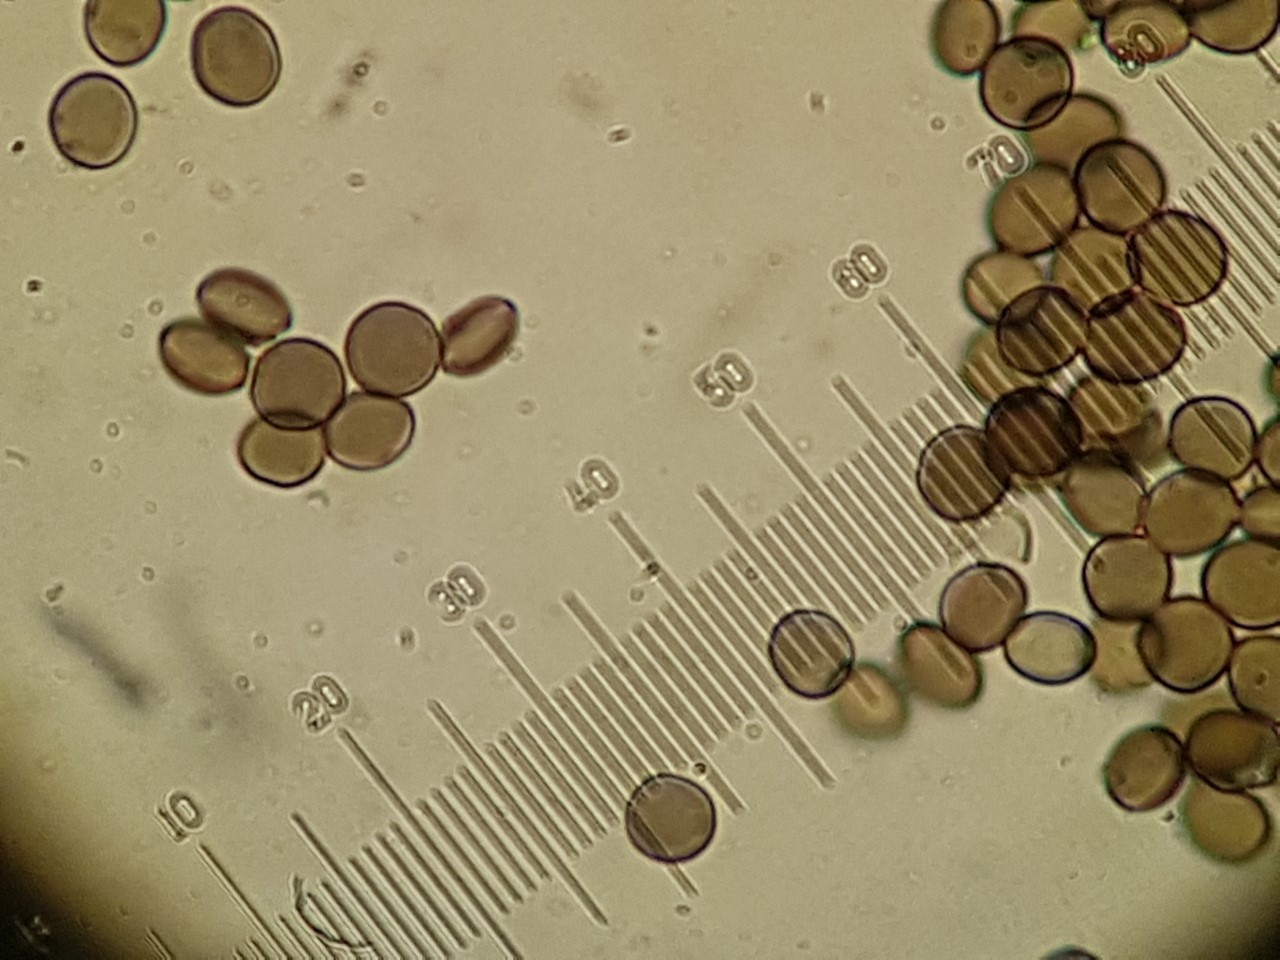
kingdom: Fungi
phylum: Ascomycota
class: Sordariomycetes
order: Xylariales
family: Apiosporaceae
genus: Arthrinium
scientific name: Arthrinium
